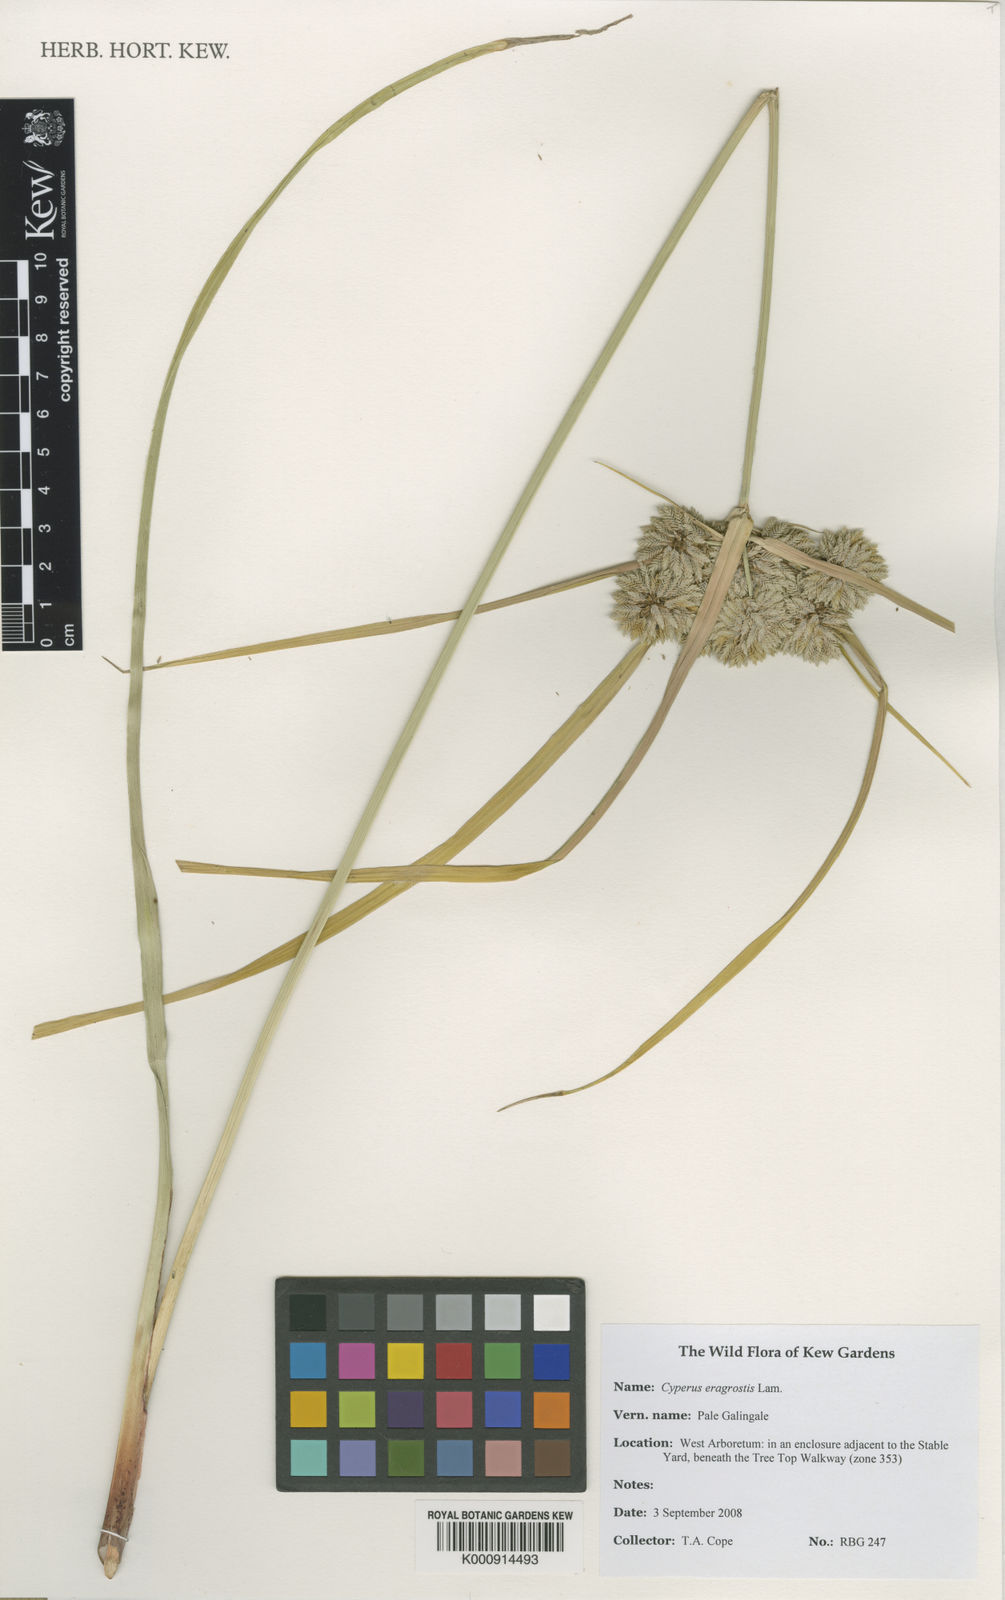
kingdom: Plantae
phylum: Tracheophyta
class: Liliopsida
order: Poales
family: Cyperaceae
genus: Cyperus
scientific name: Cyperus eragrostis
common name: Tall flatsedge
